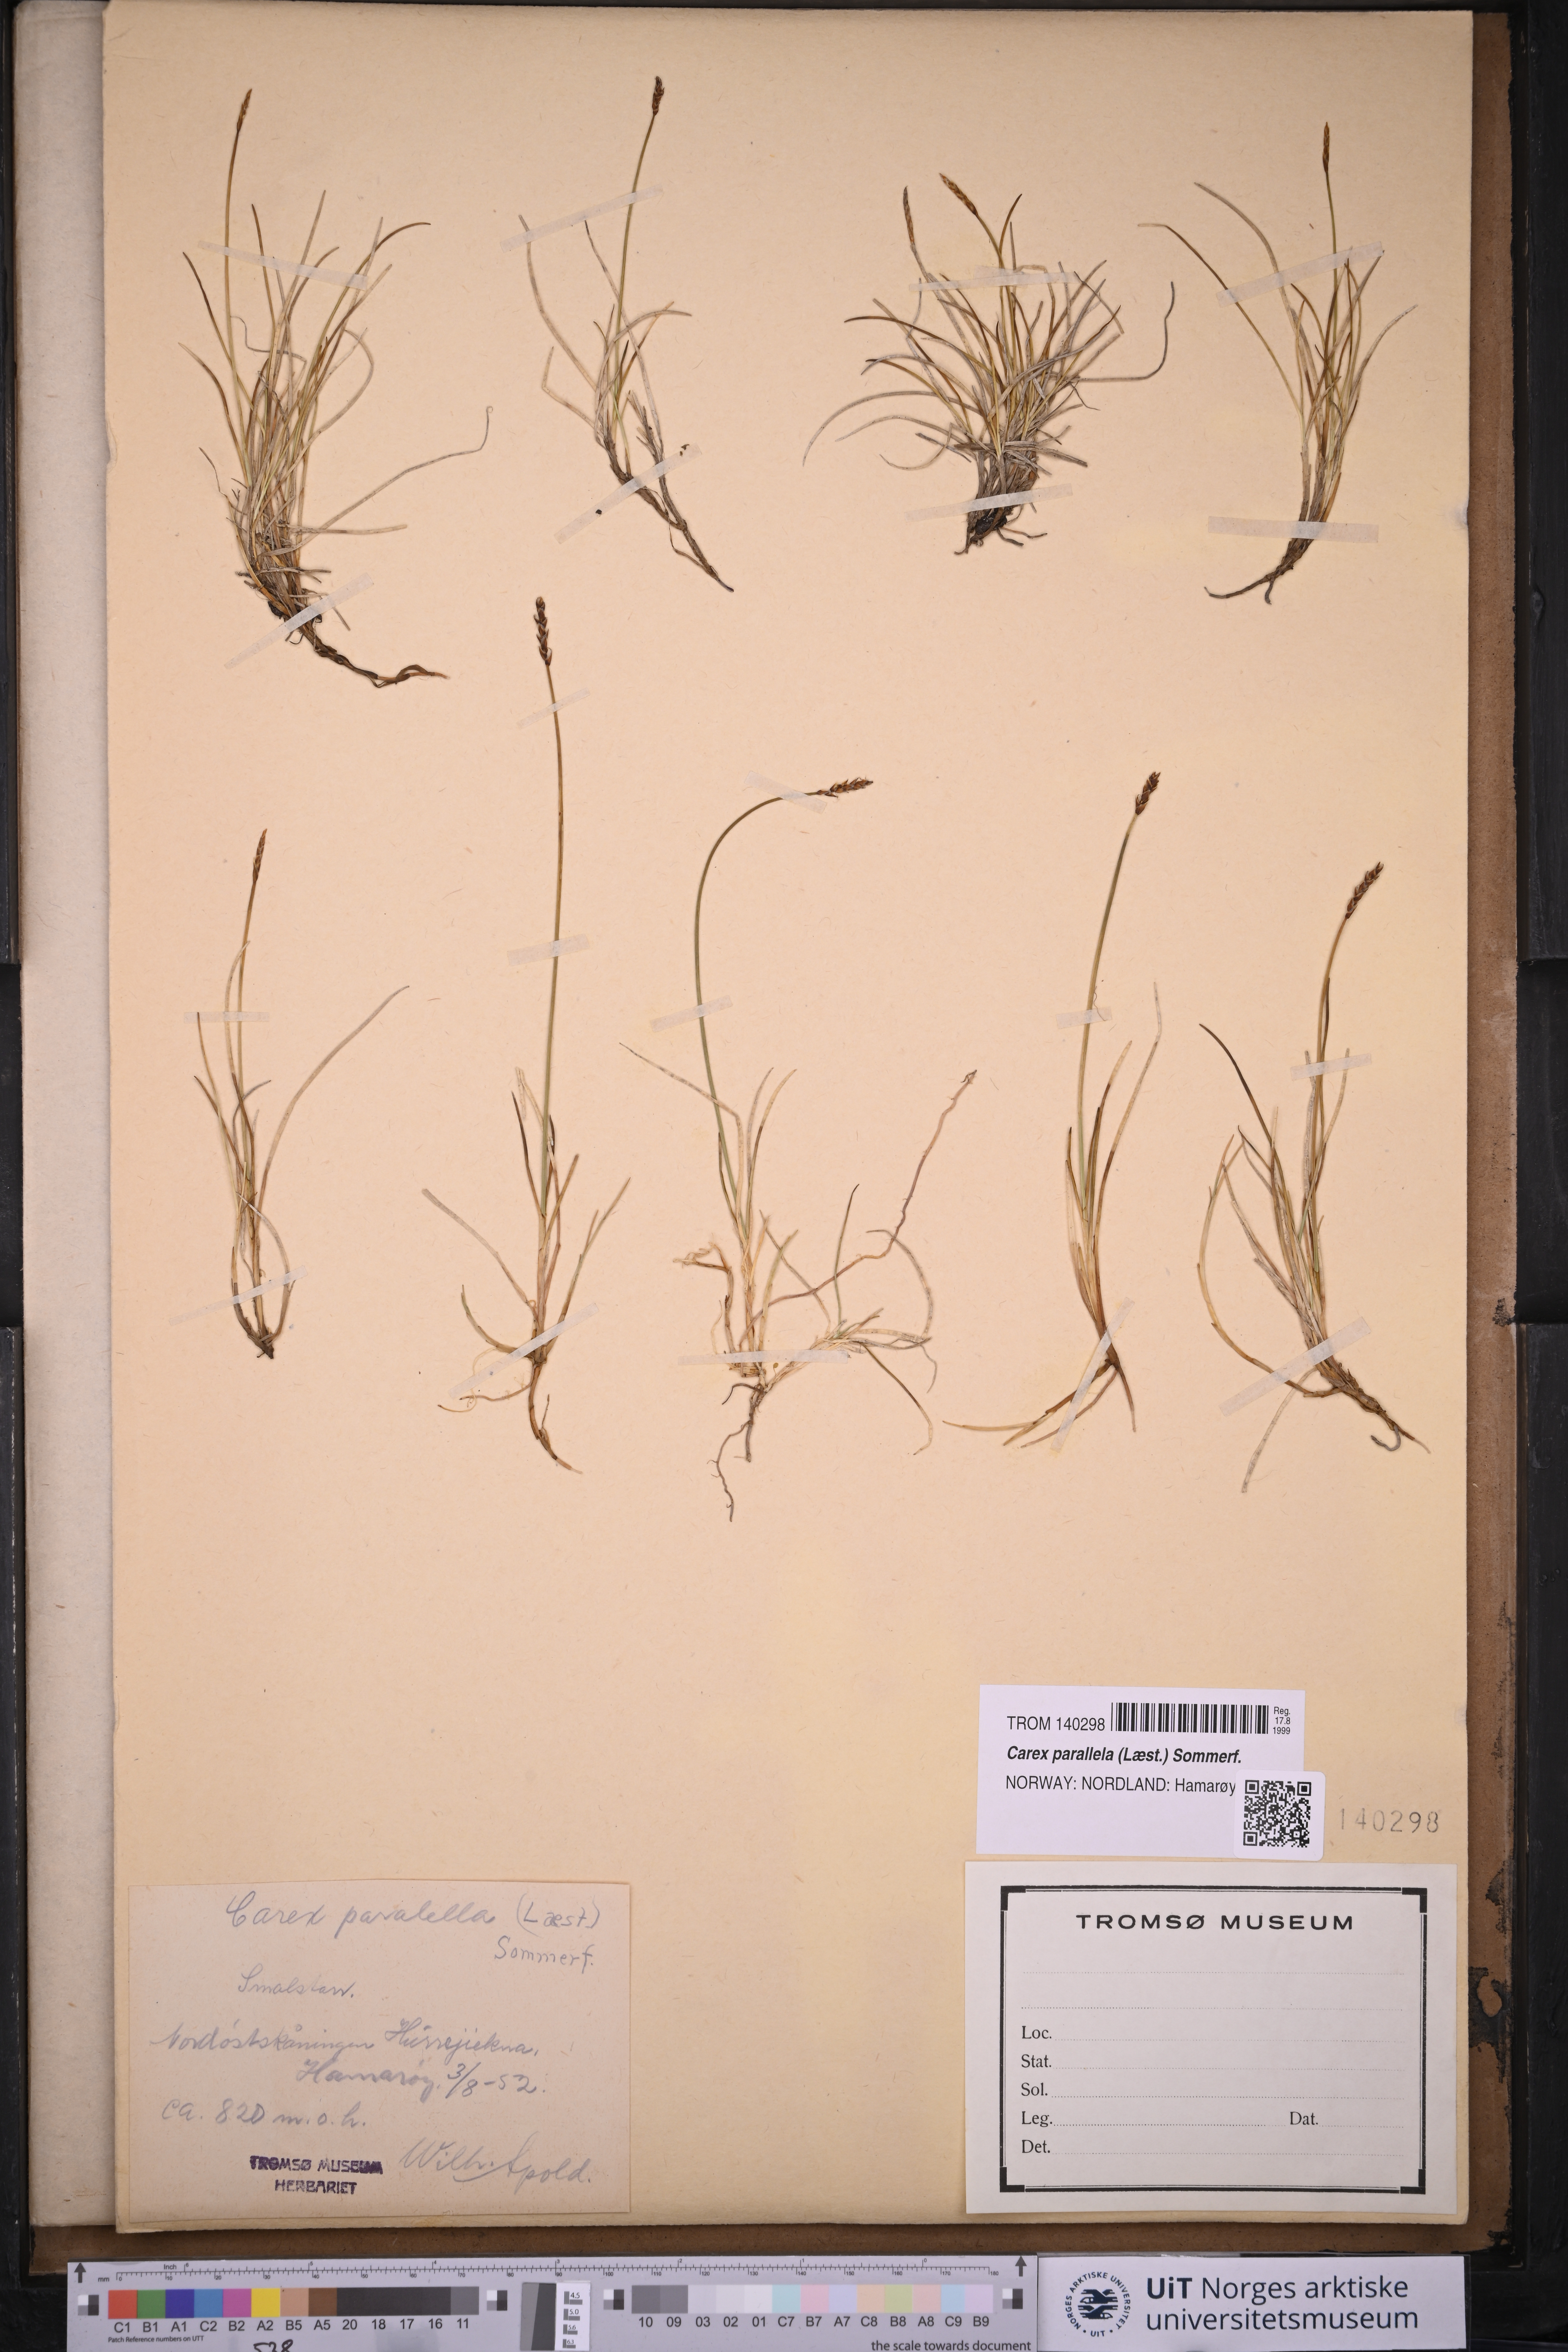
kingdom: Plantae
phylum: Tracheophyta
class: Liliopsida
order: Poales
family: Cyperaceae
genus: Carex
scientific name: Carex parallela
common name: Parallel sedge
